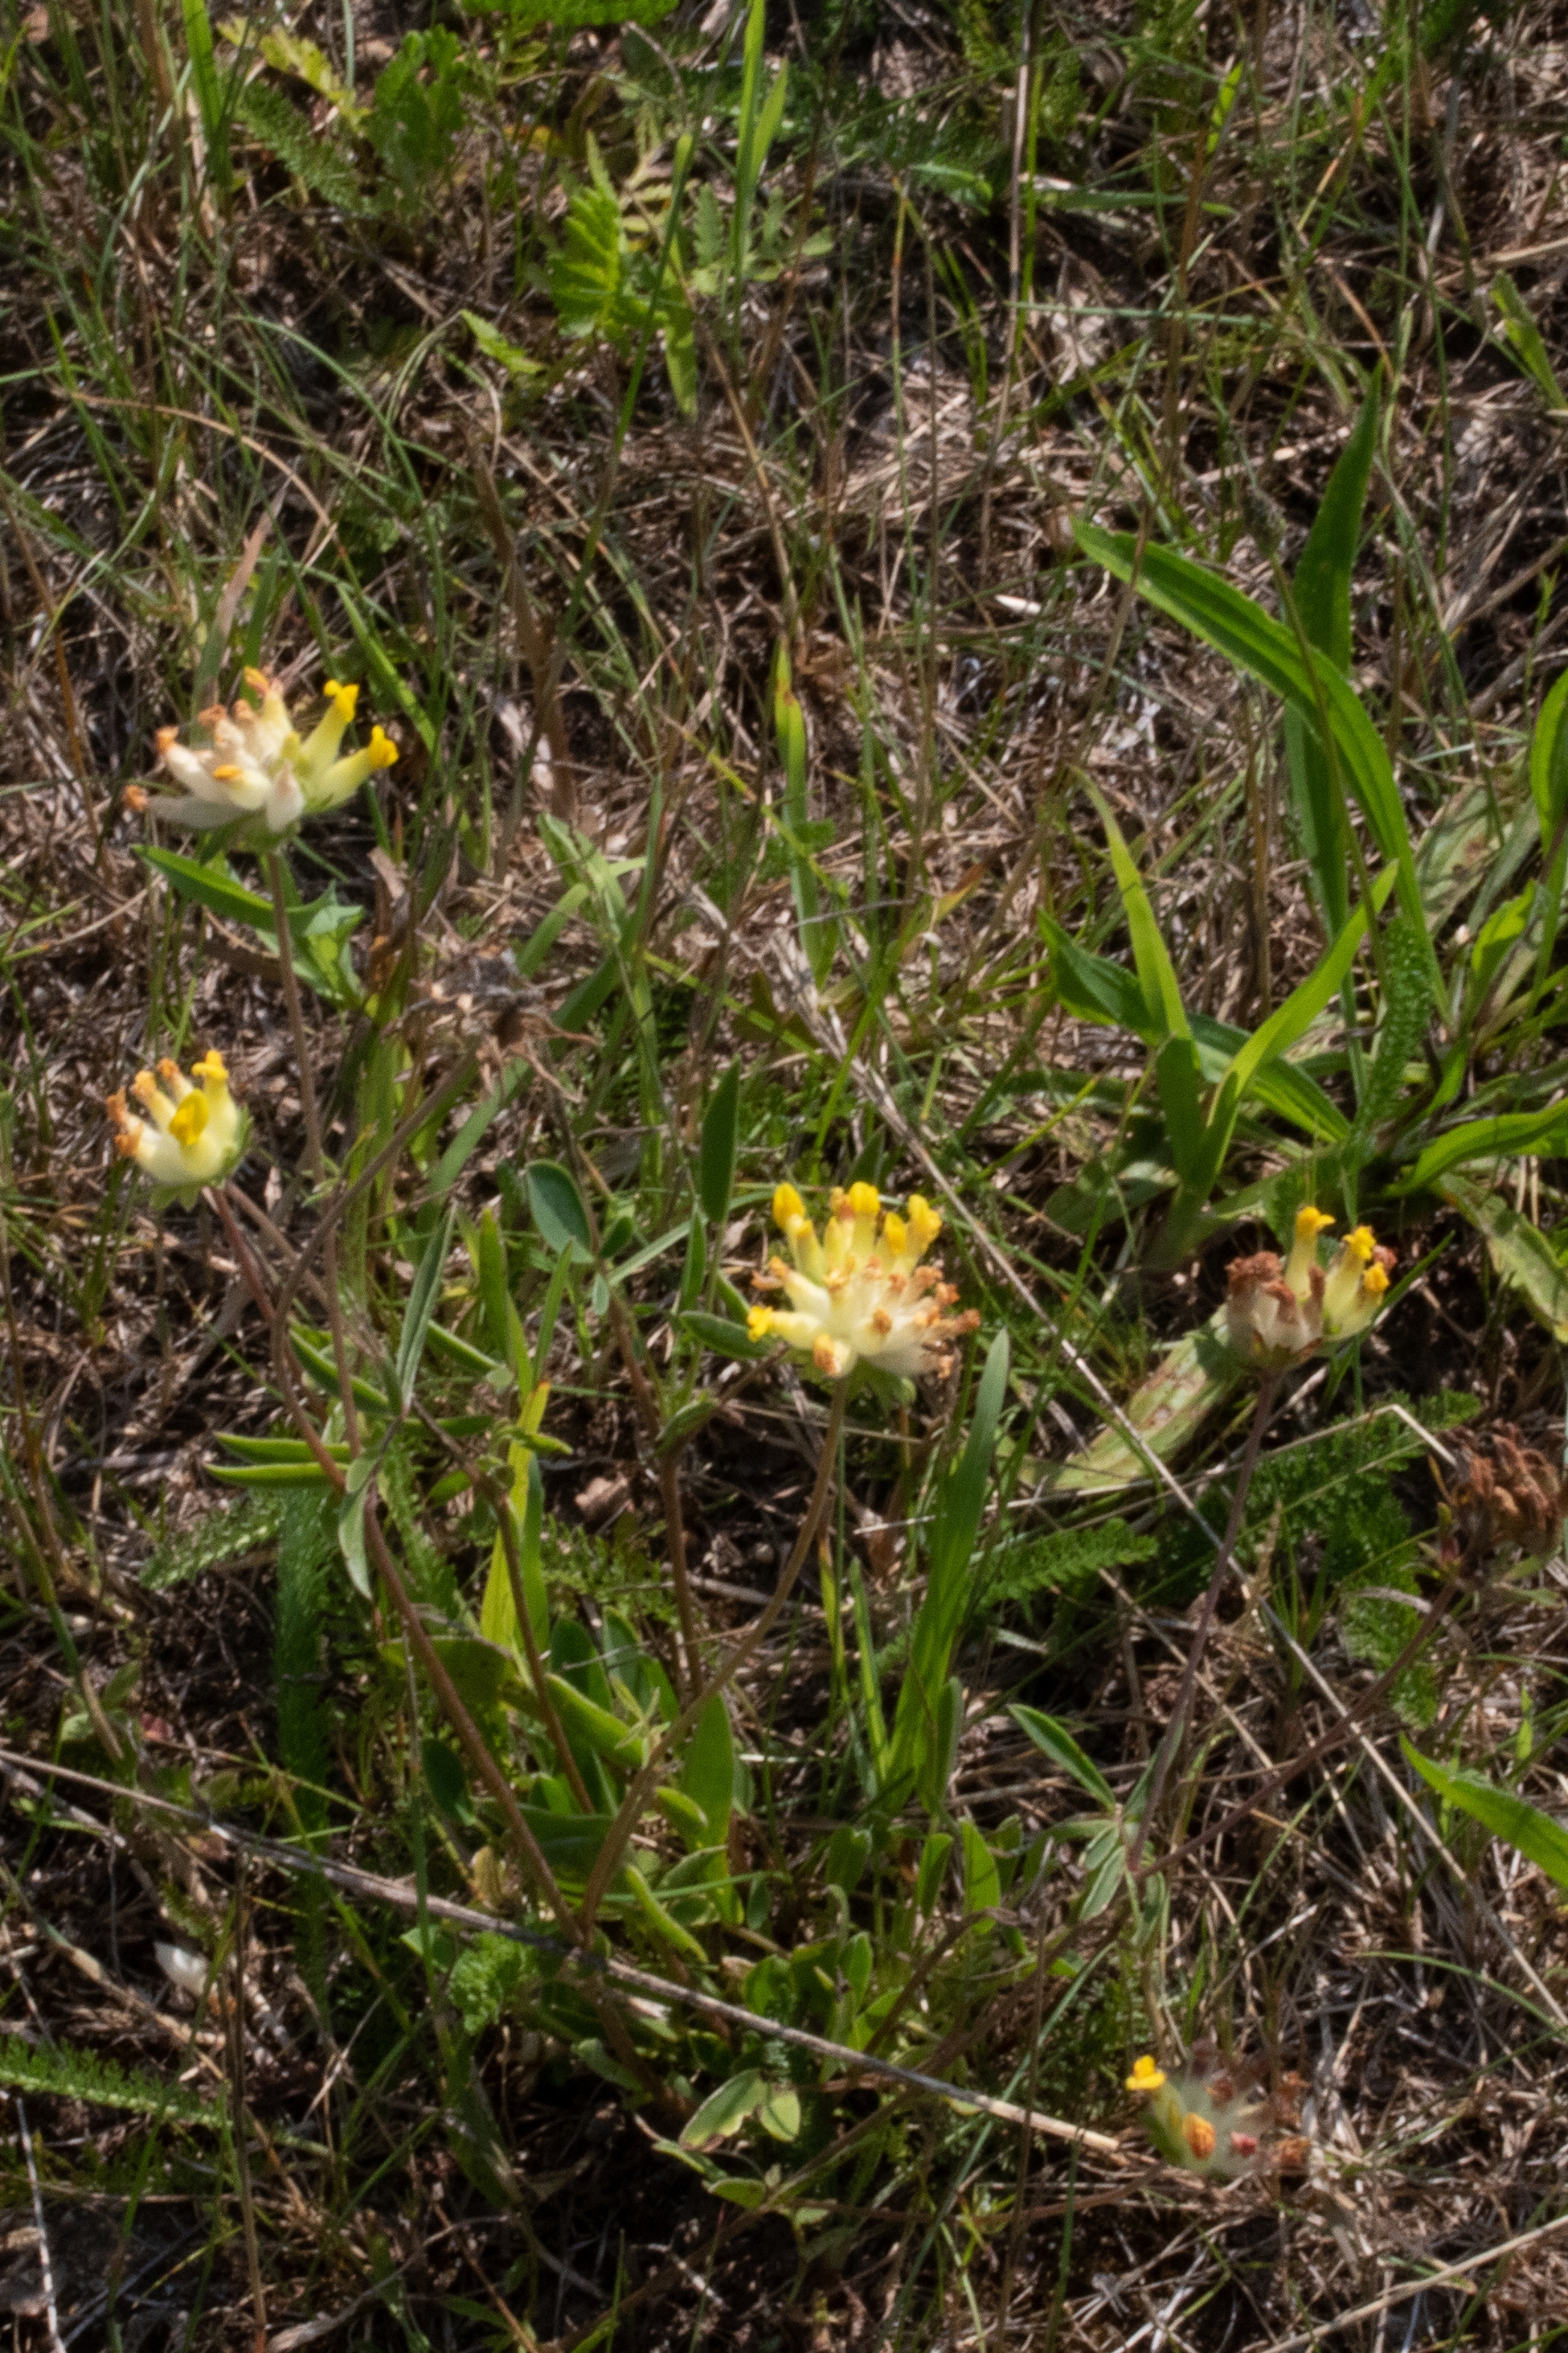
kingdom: Plantae
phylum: Tracheophyta
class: Magnoliopsida
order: Fabales
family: Fabaceae
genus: Anthyllis
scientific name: Anthyllis vulneraria
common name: Rundbælg
